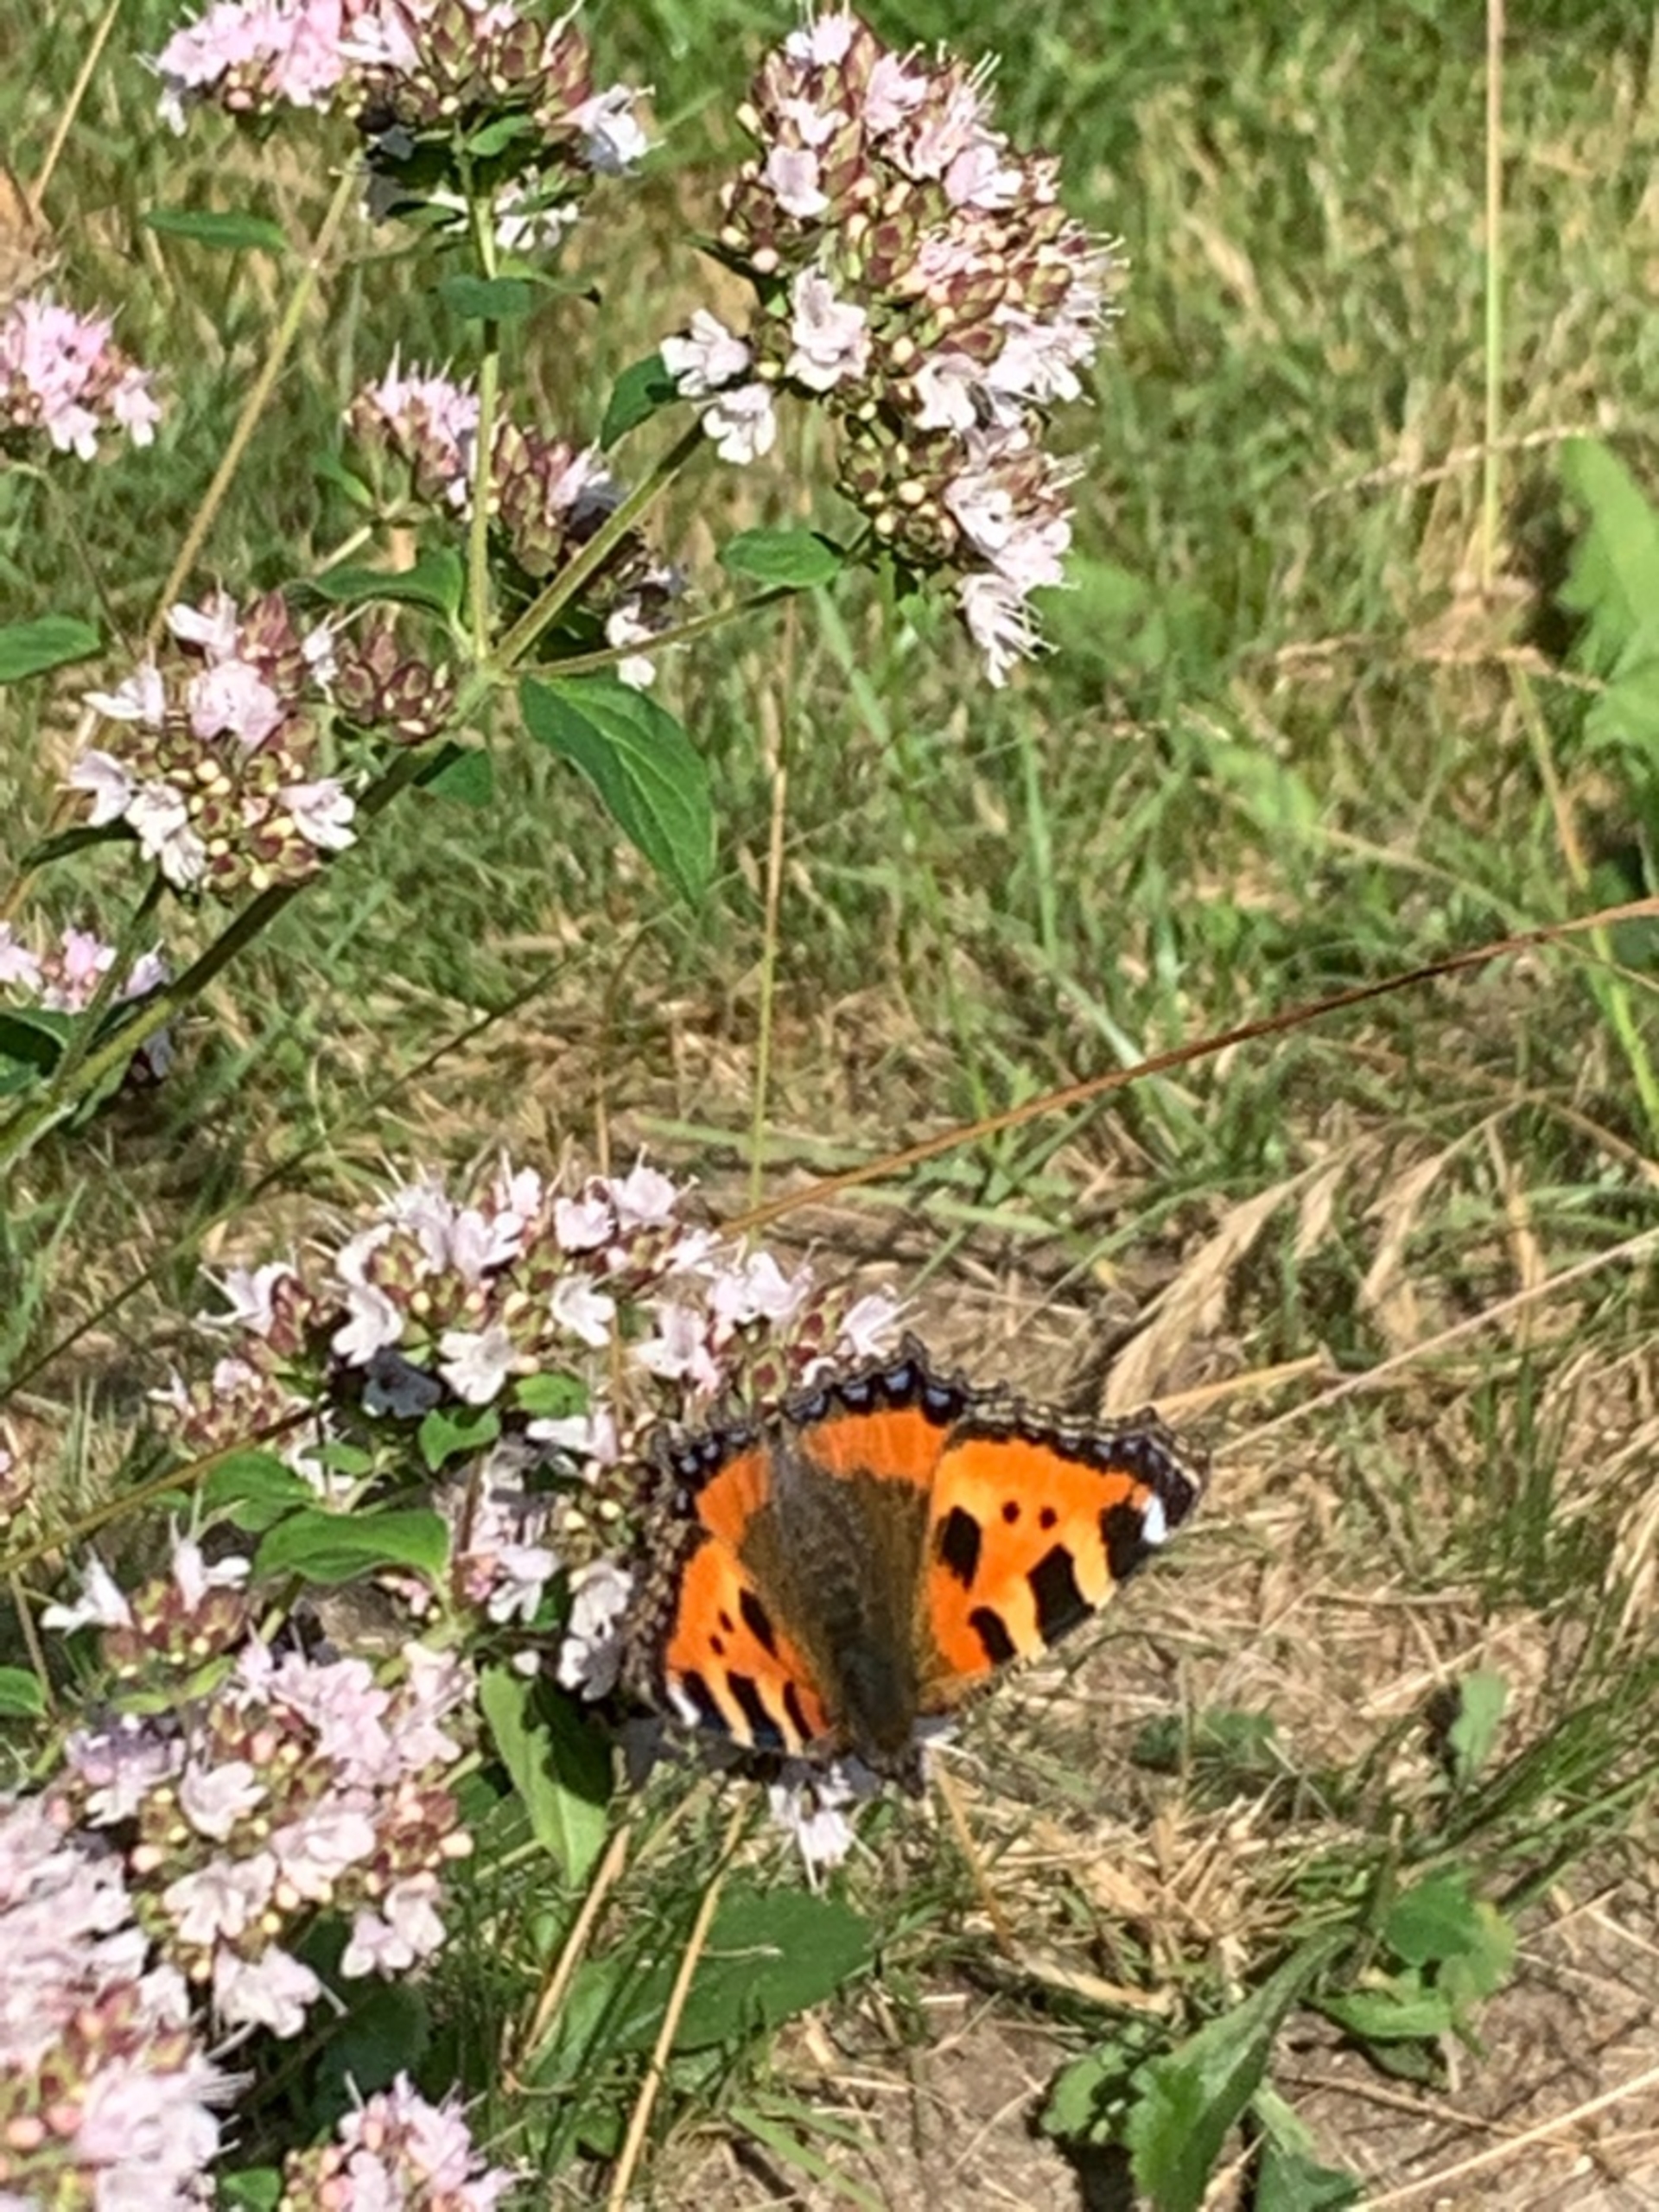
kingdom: Animalia
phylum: Arthropoda
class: Insecta
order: Lepidoptera
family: Nymphalidae
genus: Aglais
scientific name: Aglais urticae
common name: Nældens takvinge
